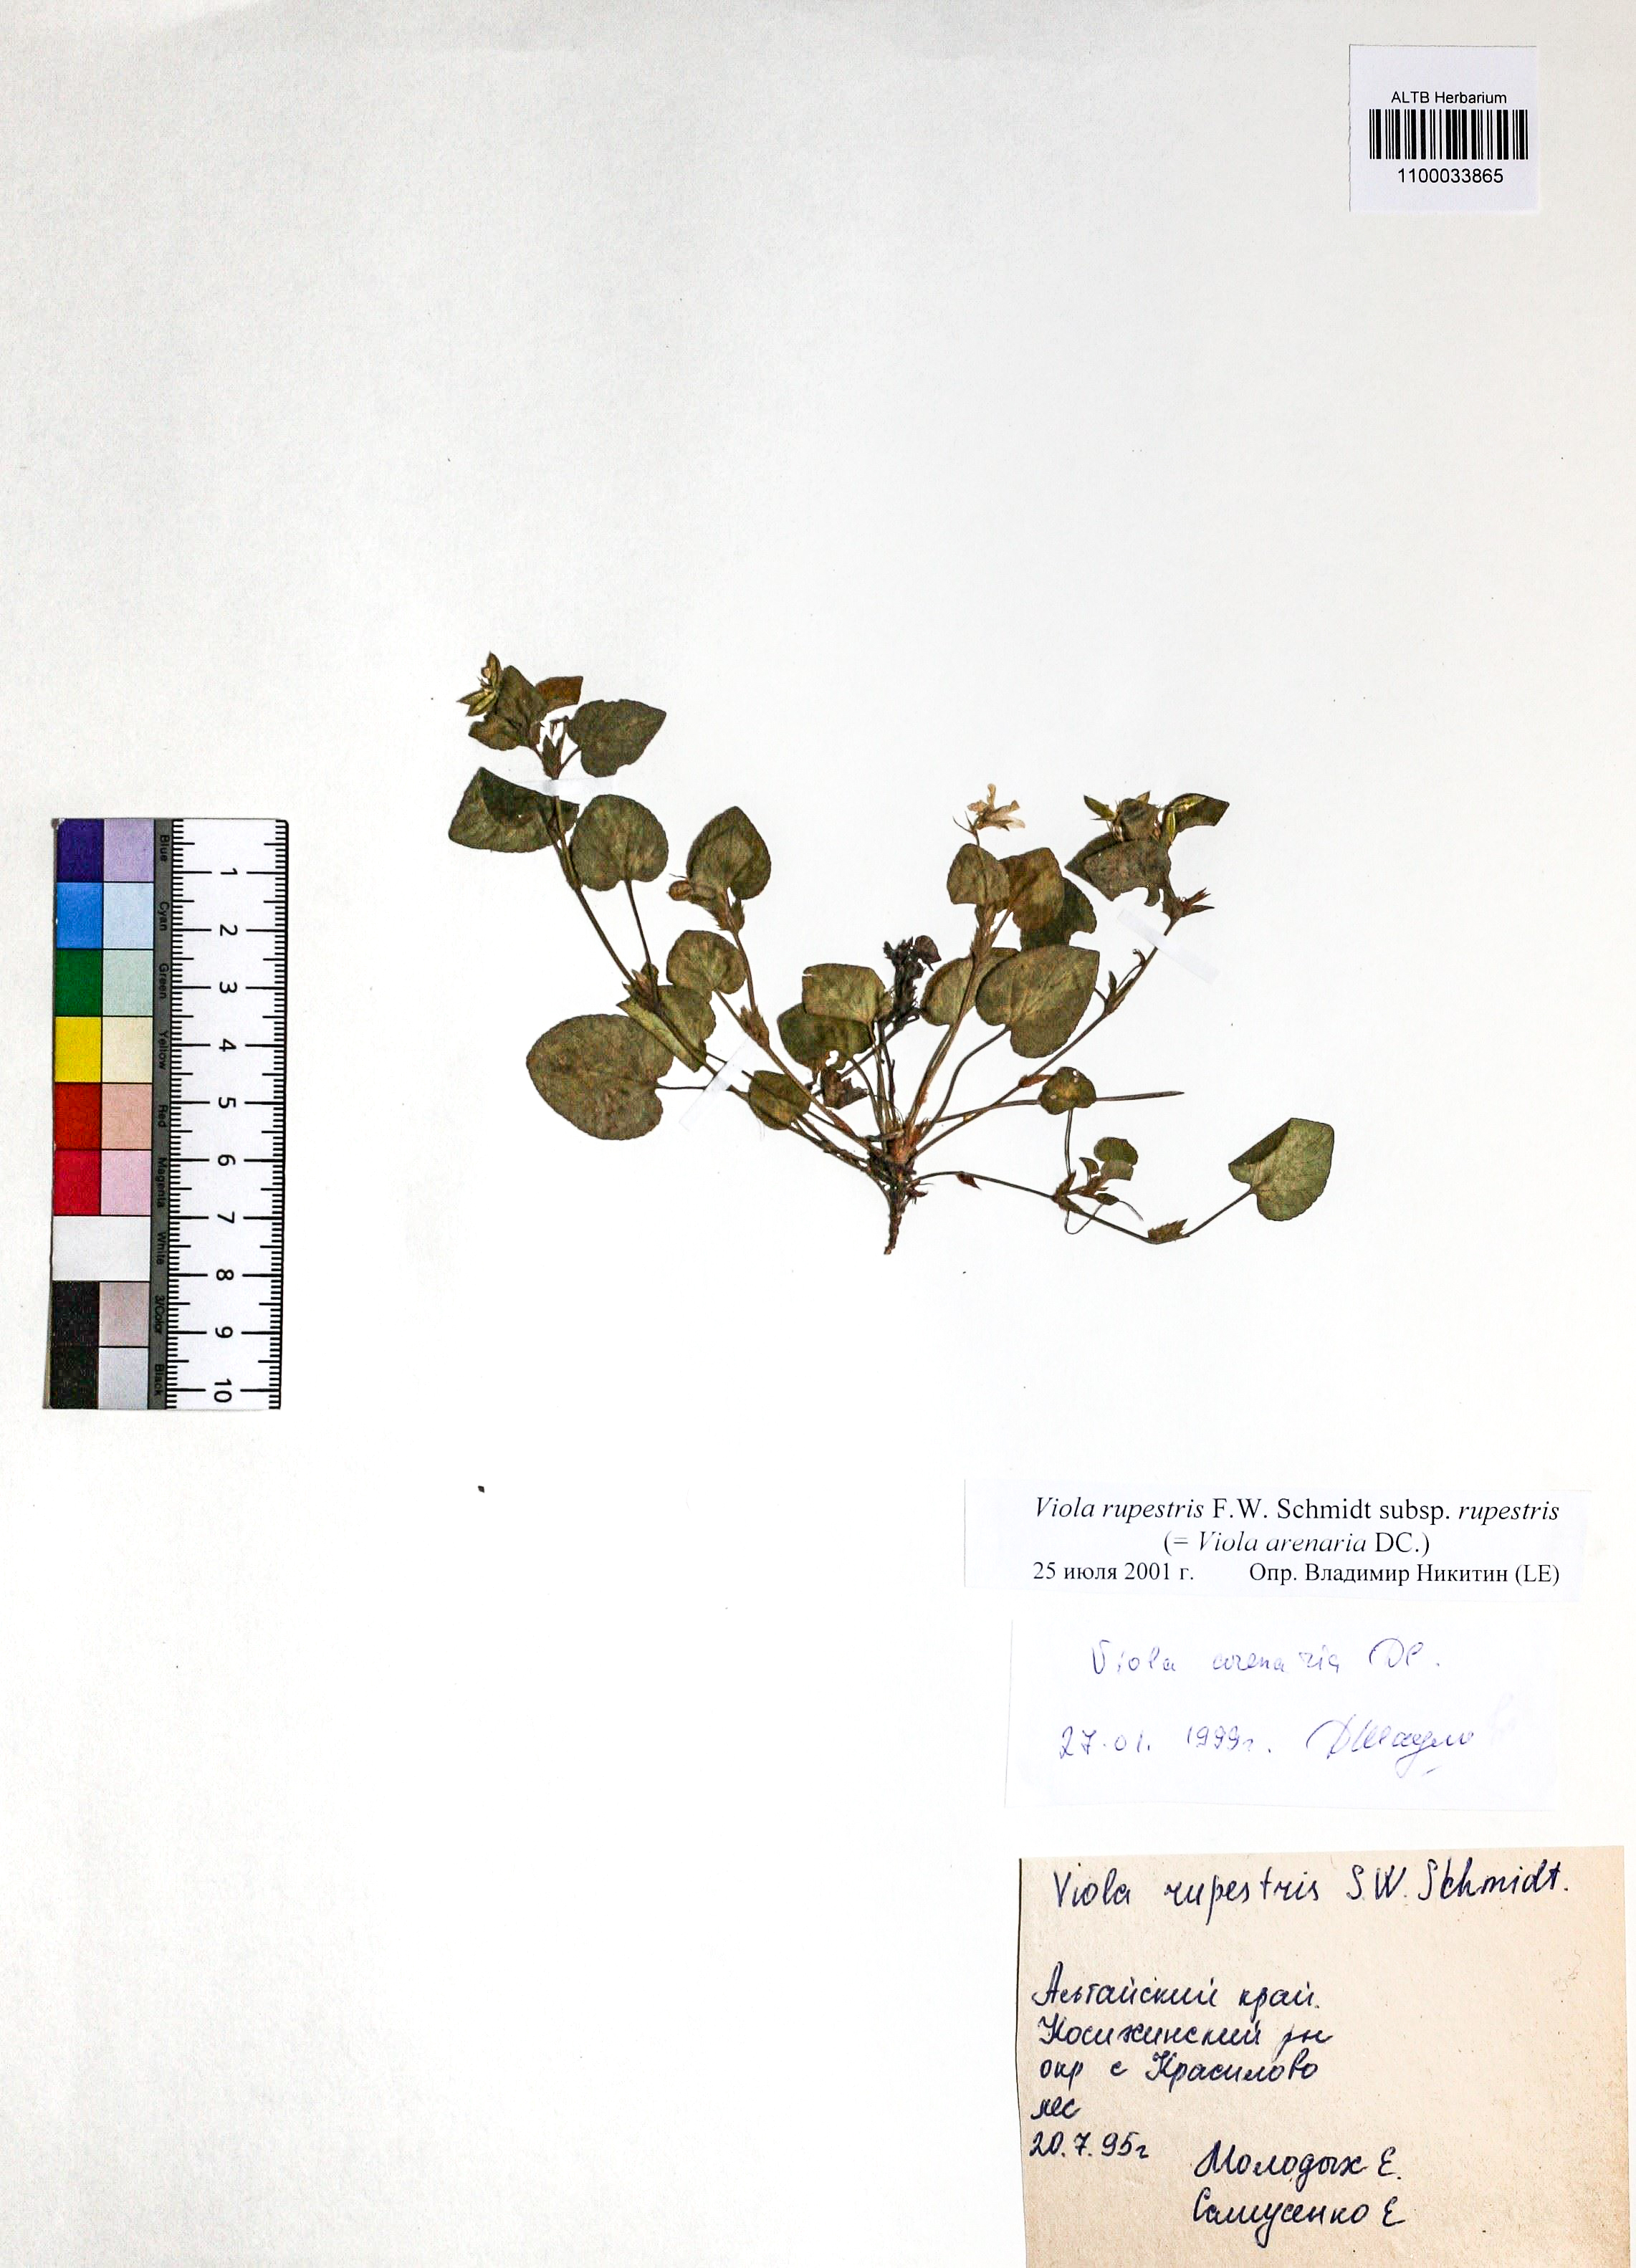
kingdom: Plantae
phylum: Tracheophyta
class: Magnoliopsida
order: Malpighiales
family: Violaceae
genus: Viola
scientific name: Viola rupestris
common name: Teesdale violet
